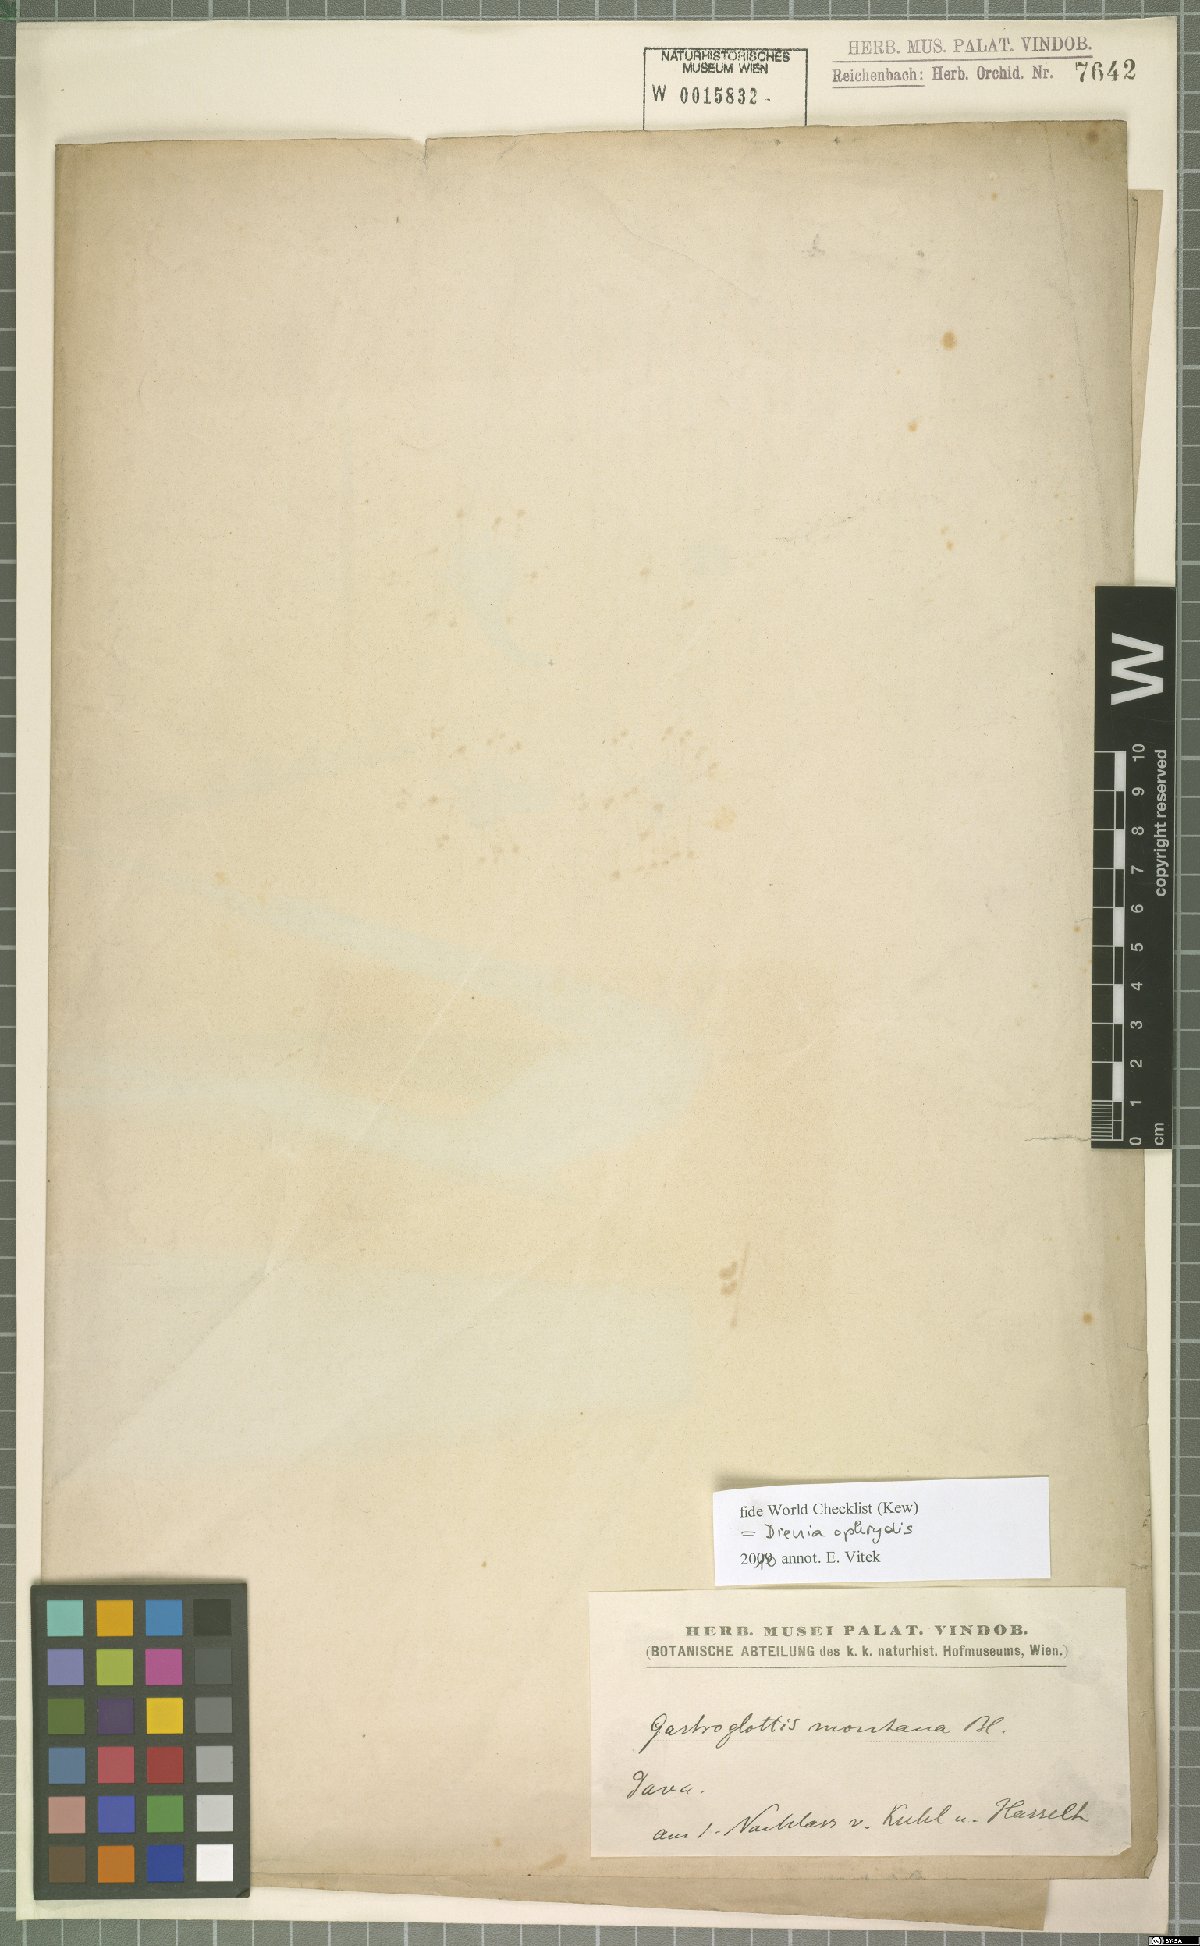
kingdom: Plantae
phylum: Tracheophyta
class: Liliopsida
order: Asparagales
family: Orchidaceae
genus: Dienia
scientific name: Dienia ophrydis
